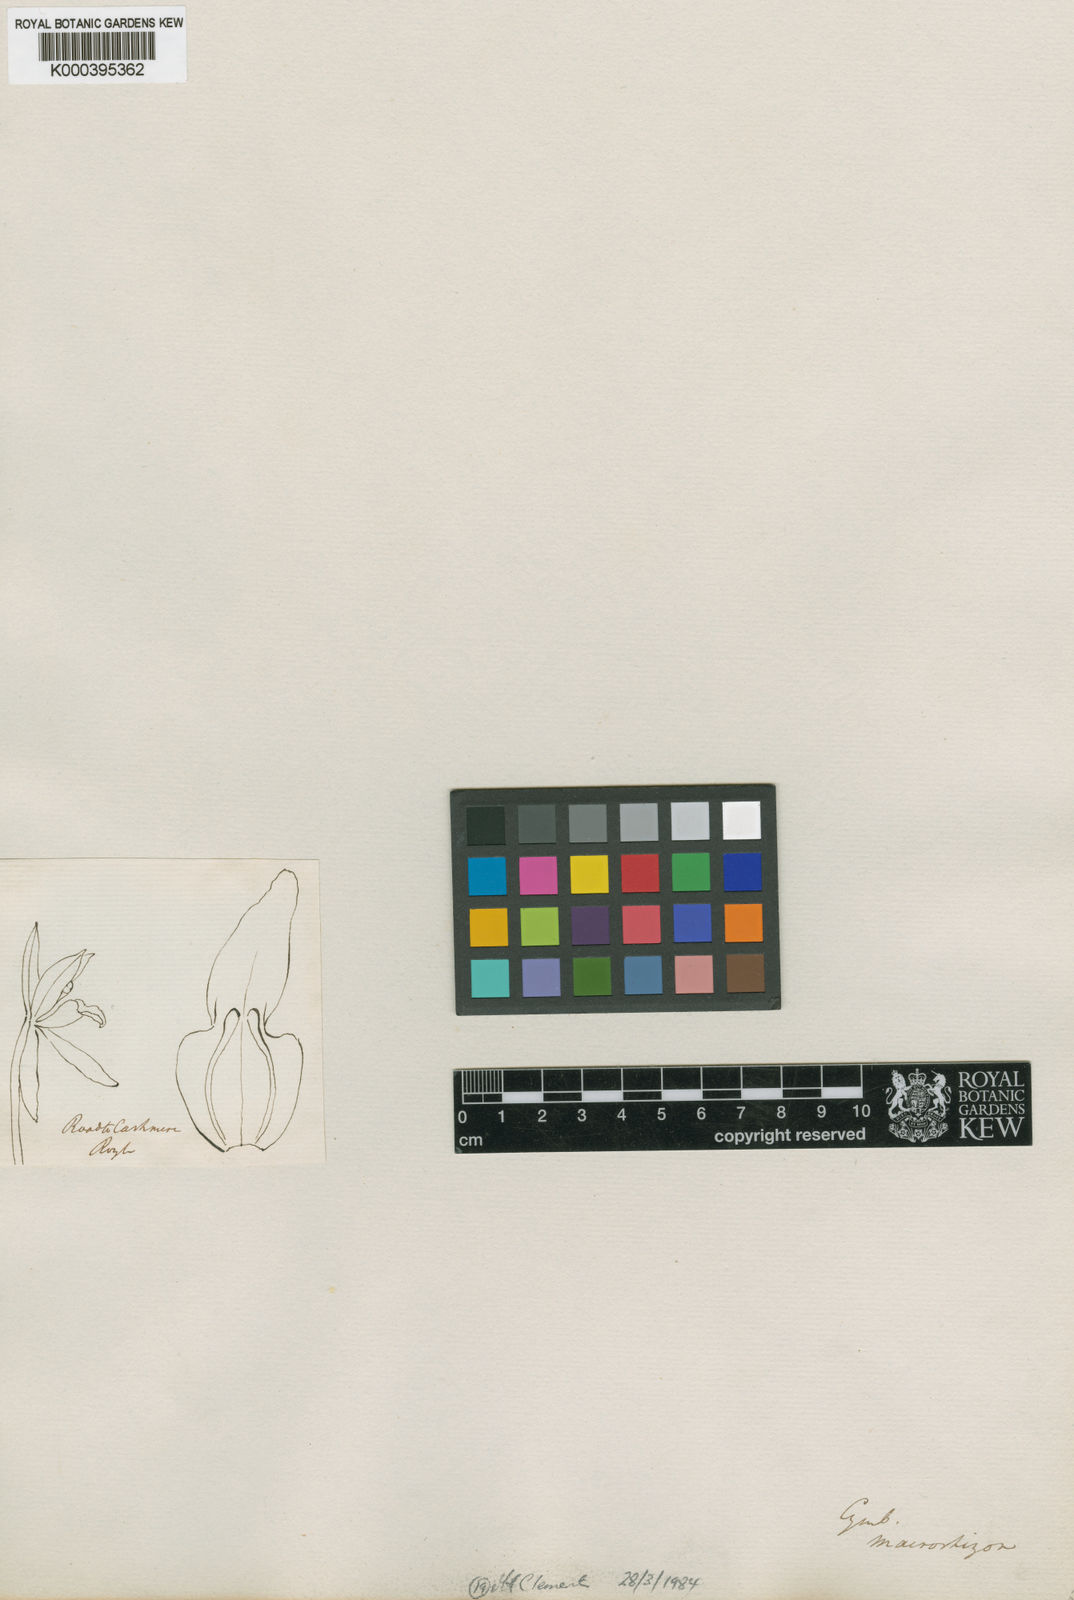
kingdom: Plantae
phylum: Tracheophyta
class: Liliopsida
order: Asparagales
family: Orchidaceae
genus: Cymbidium
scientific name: Cymbidium macrorhizon
